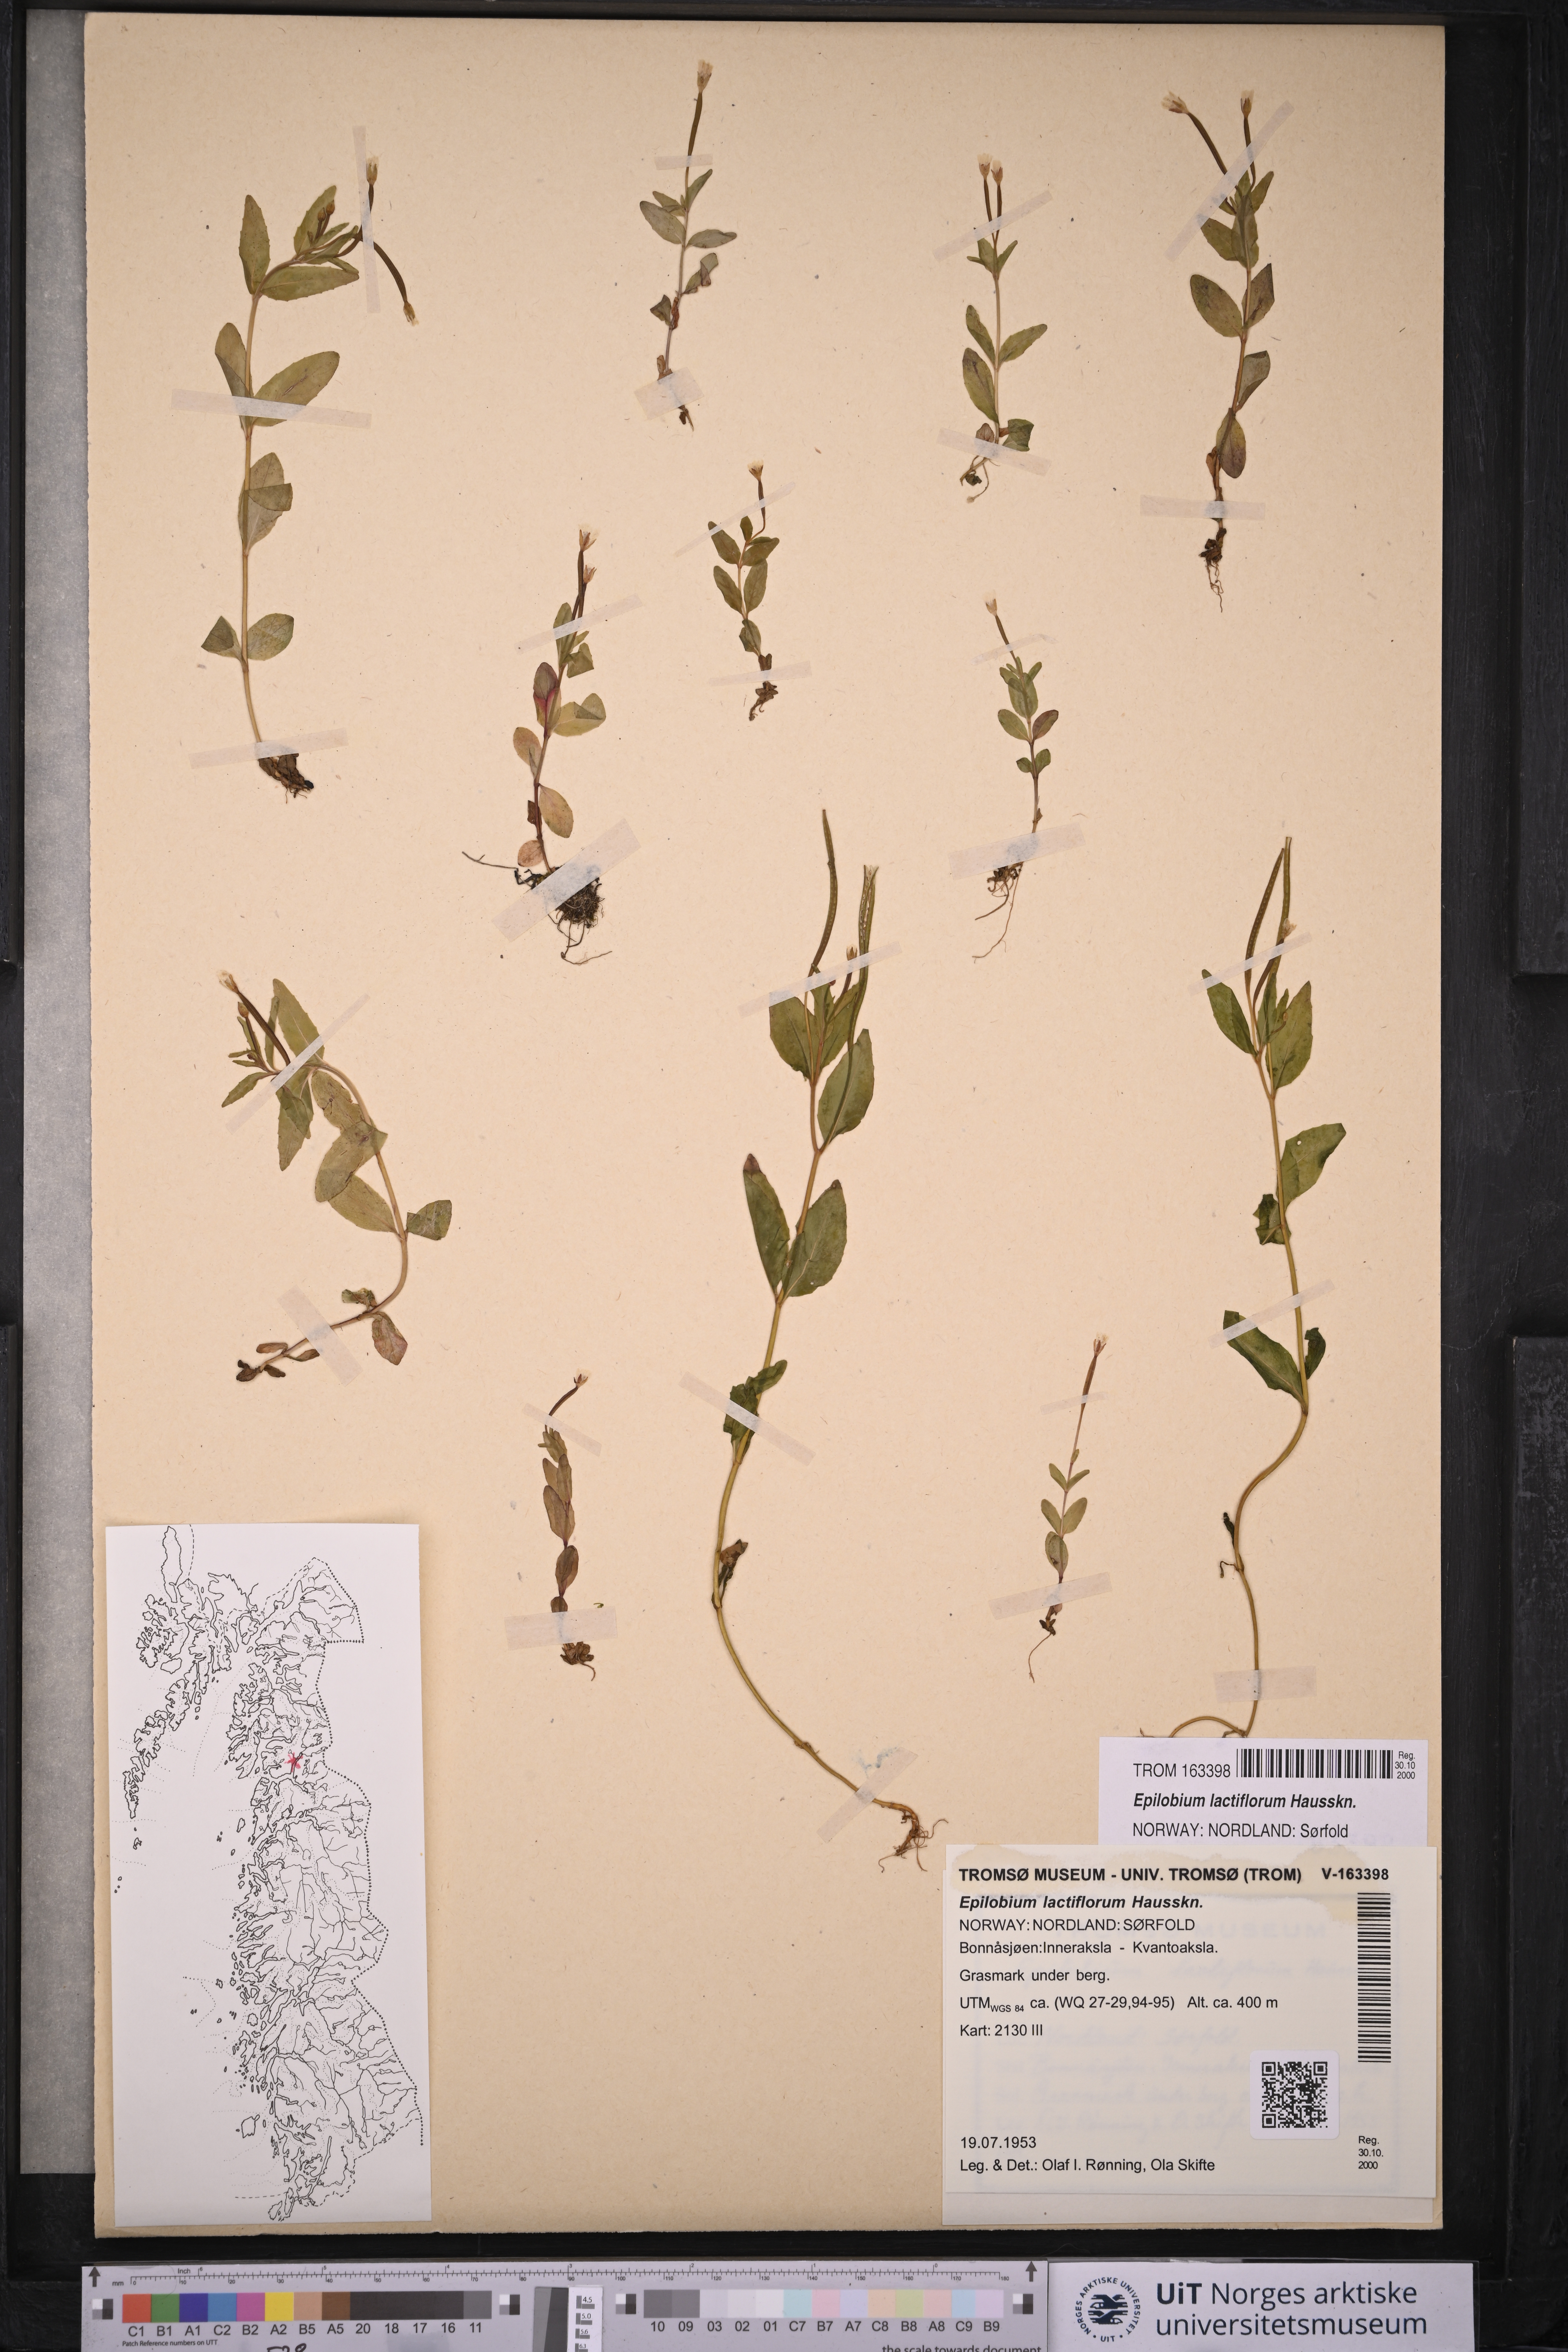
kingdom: Plantae
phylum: Tracheophyta
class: Magnoliopsida
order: Myrtales
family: Onagraceae
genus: Epilobium
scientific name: Epilobium lactiflorum
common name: Milkflower willowherb
